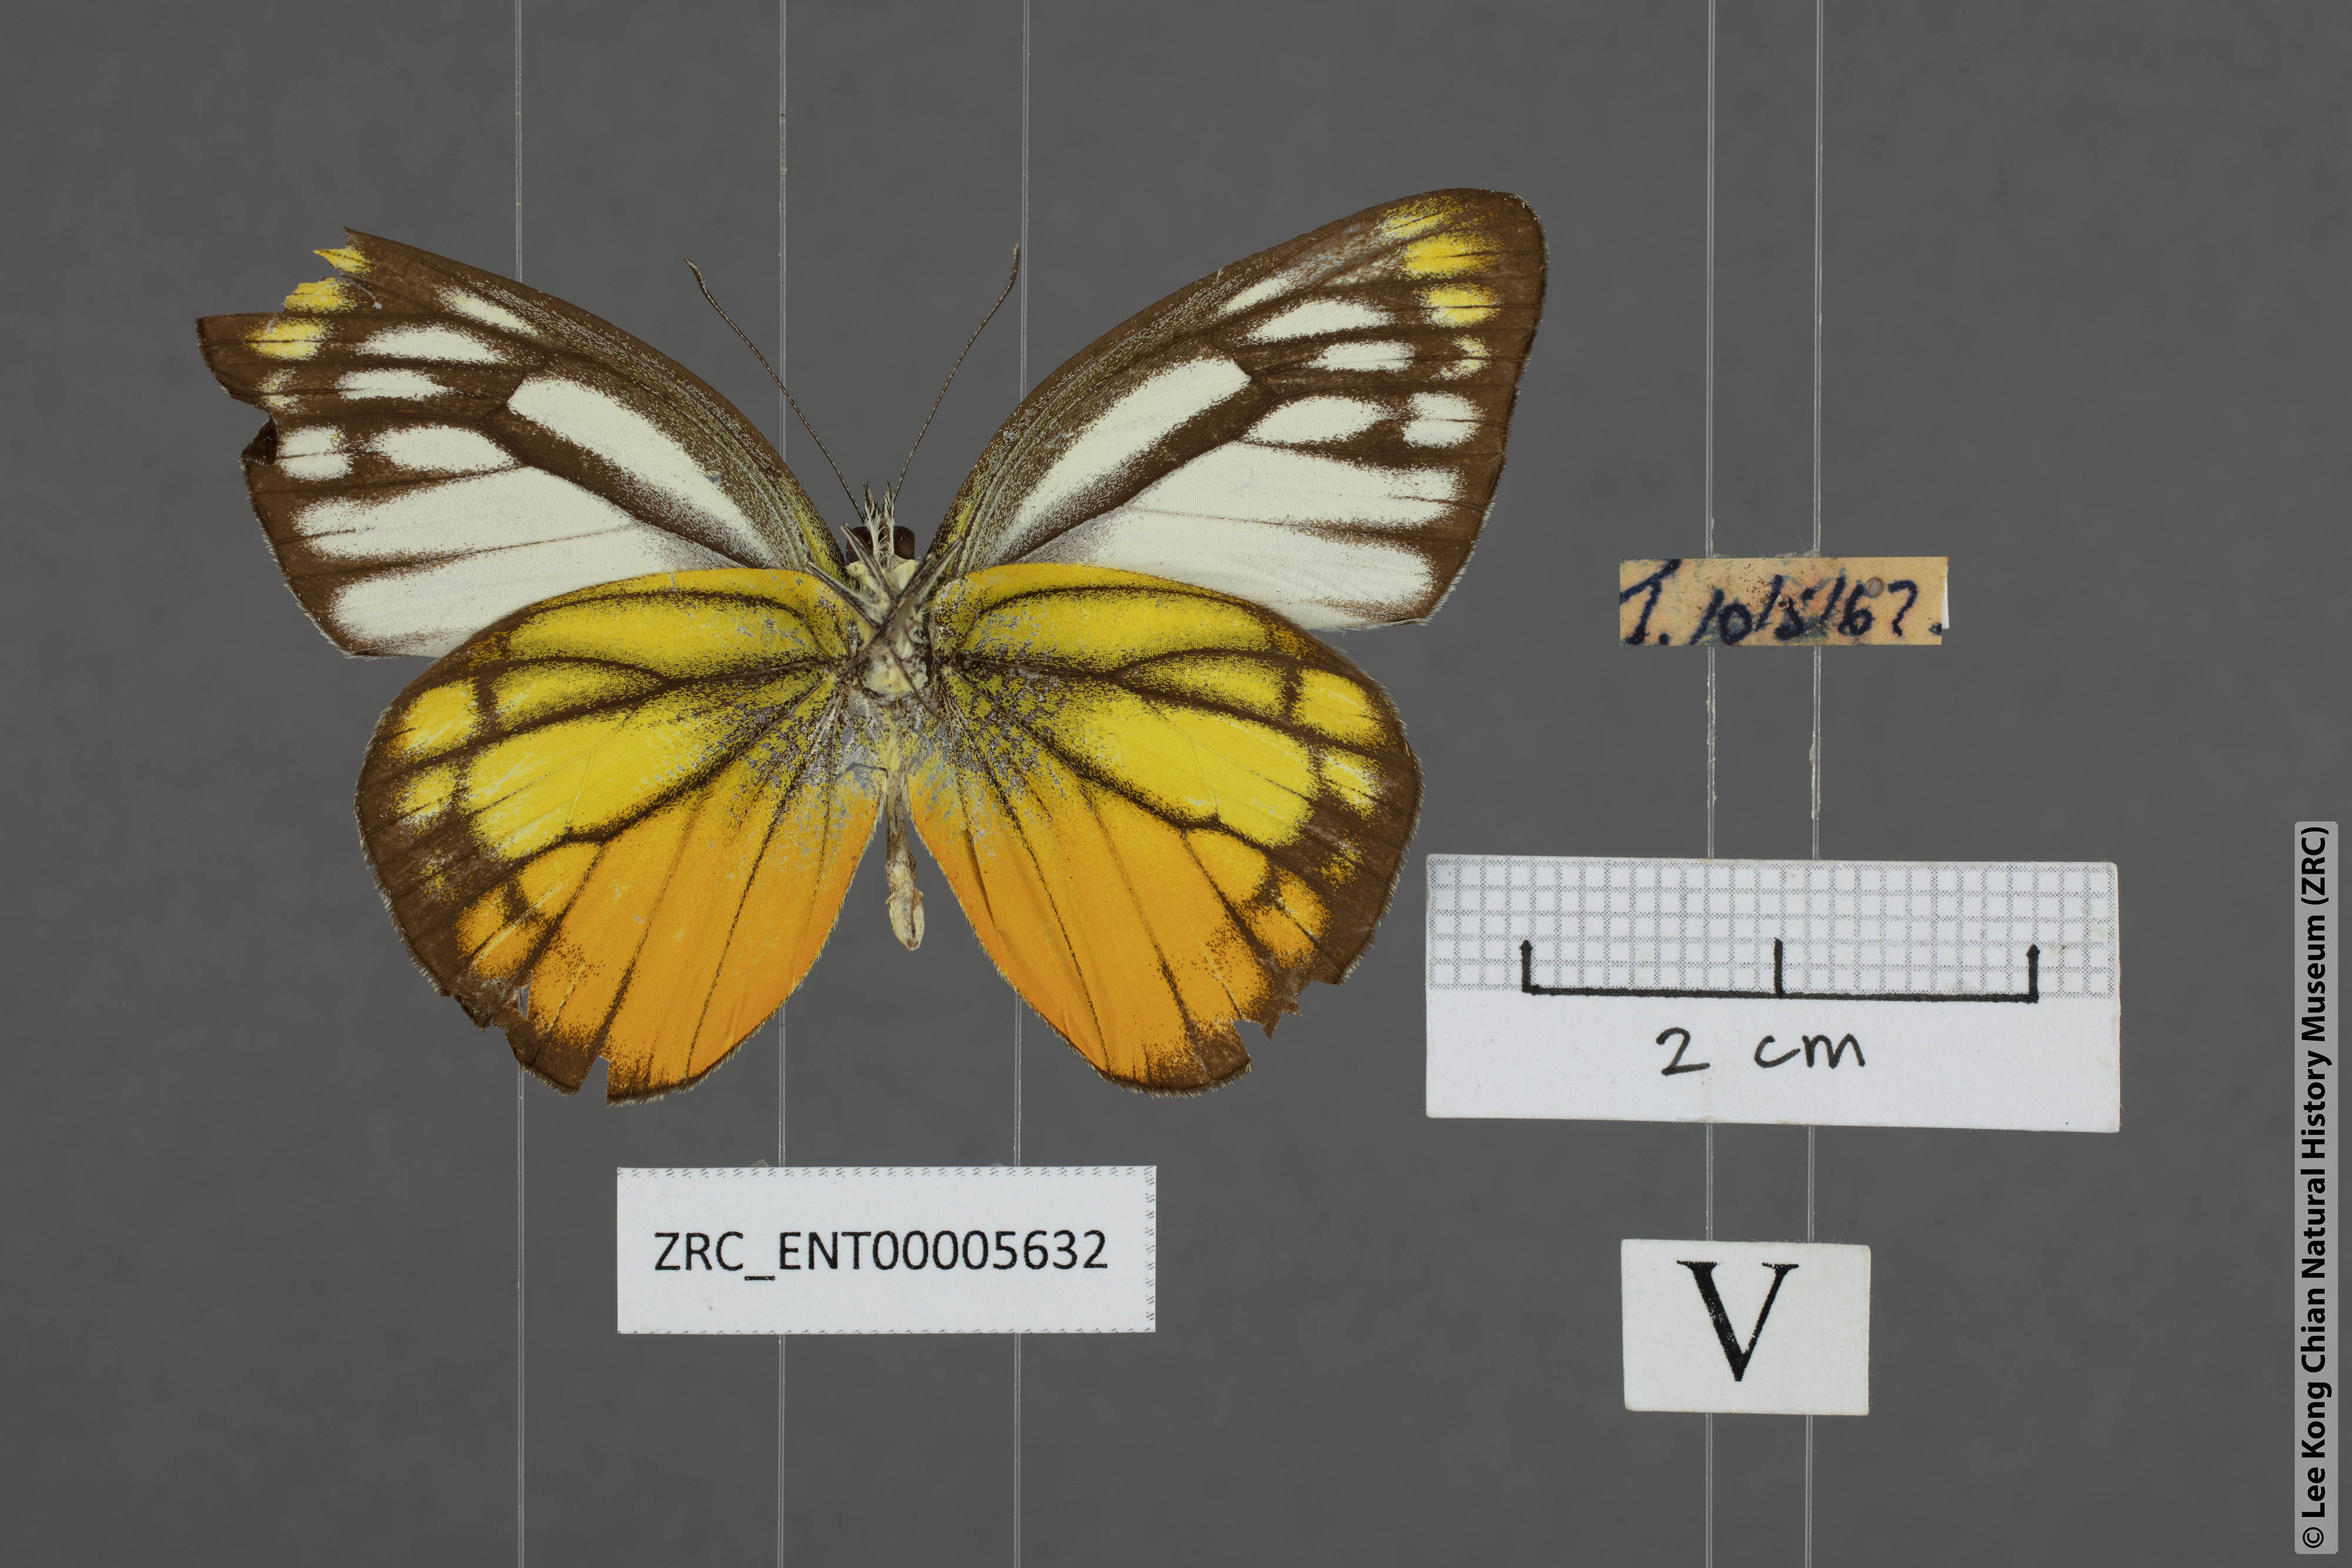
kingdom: Animalia
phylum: Arthropoda
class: Insecta
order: Lepidoptera
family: Pieridae
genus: Cepora
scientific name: Cepora iudith
